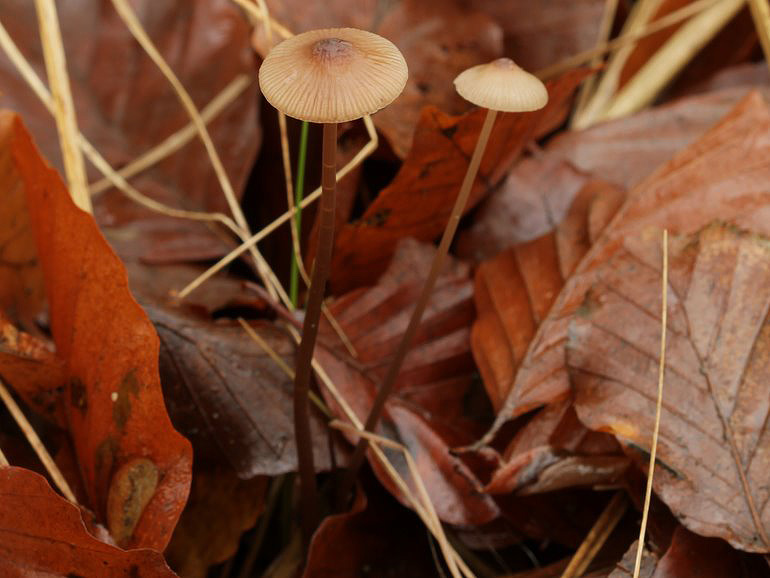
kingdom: Fungi
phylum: Basidiomycota
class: Agaricomycetes
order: Agaricales
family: Mycenaceae
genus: Mycena
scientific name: Mycena vitilis
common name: blankstokket huesvamp
